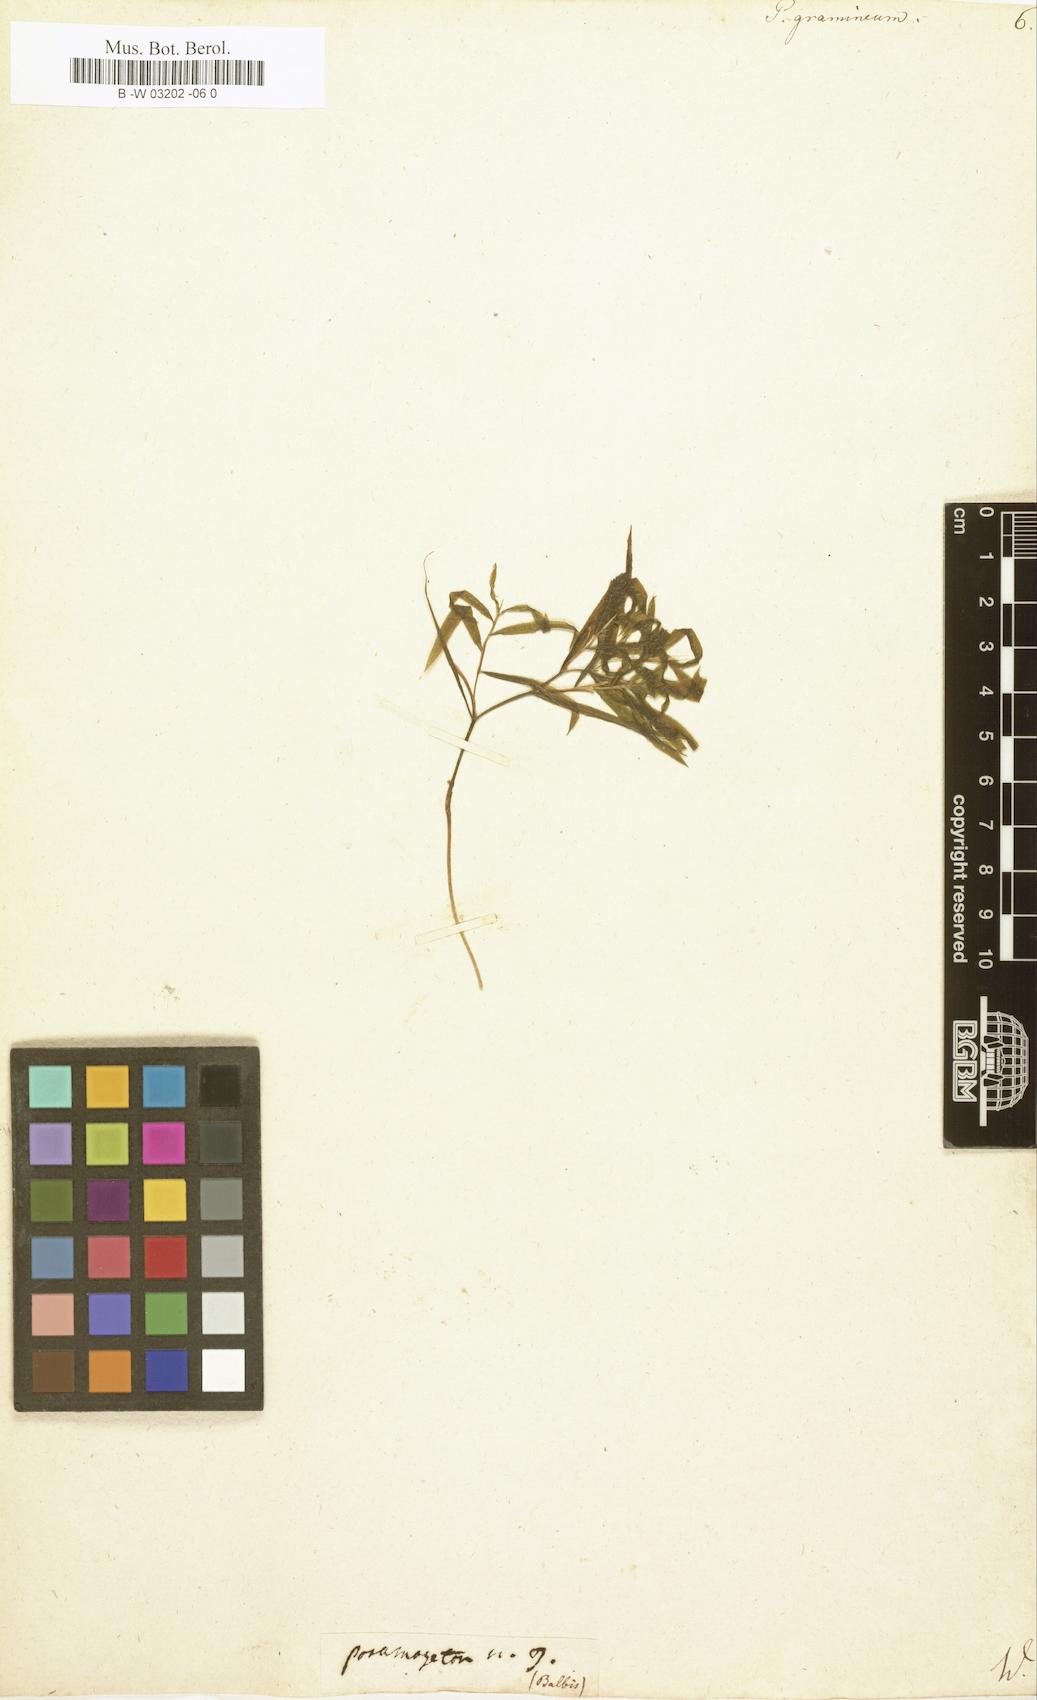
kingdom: Plantae
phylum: Tracheophyta
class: Liliopsida
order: Alismatales
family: Potamogetonaceae
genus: Potamogeton
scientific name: Potamogeton gramineus
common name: Various-leaved pondweed
